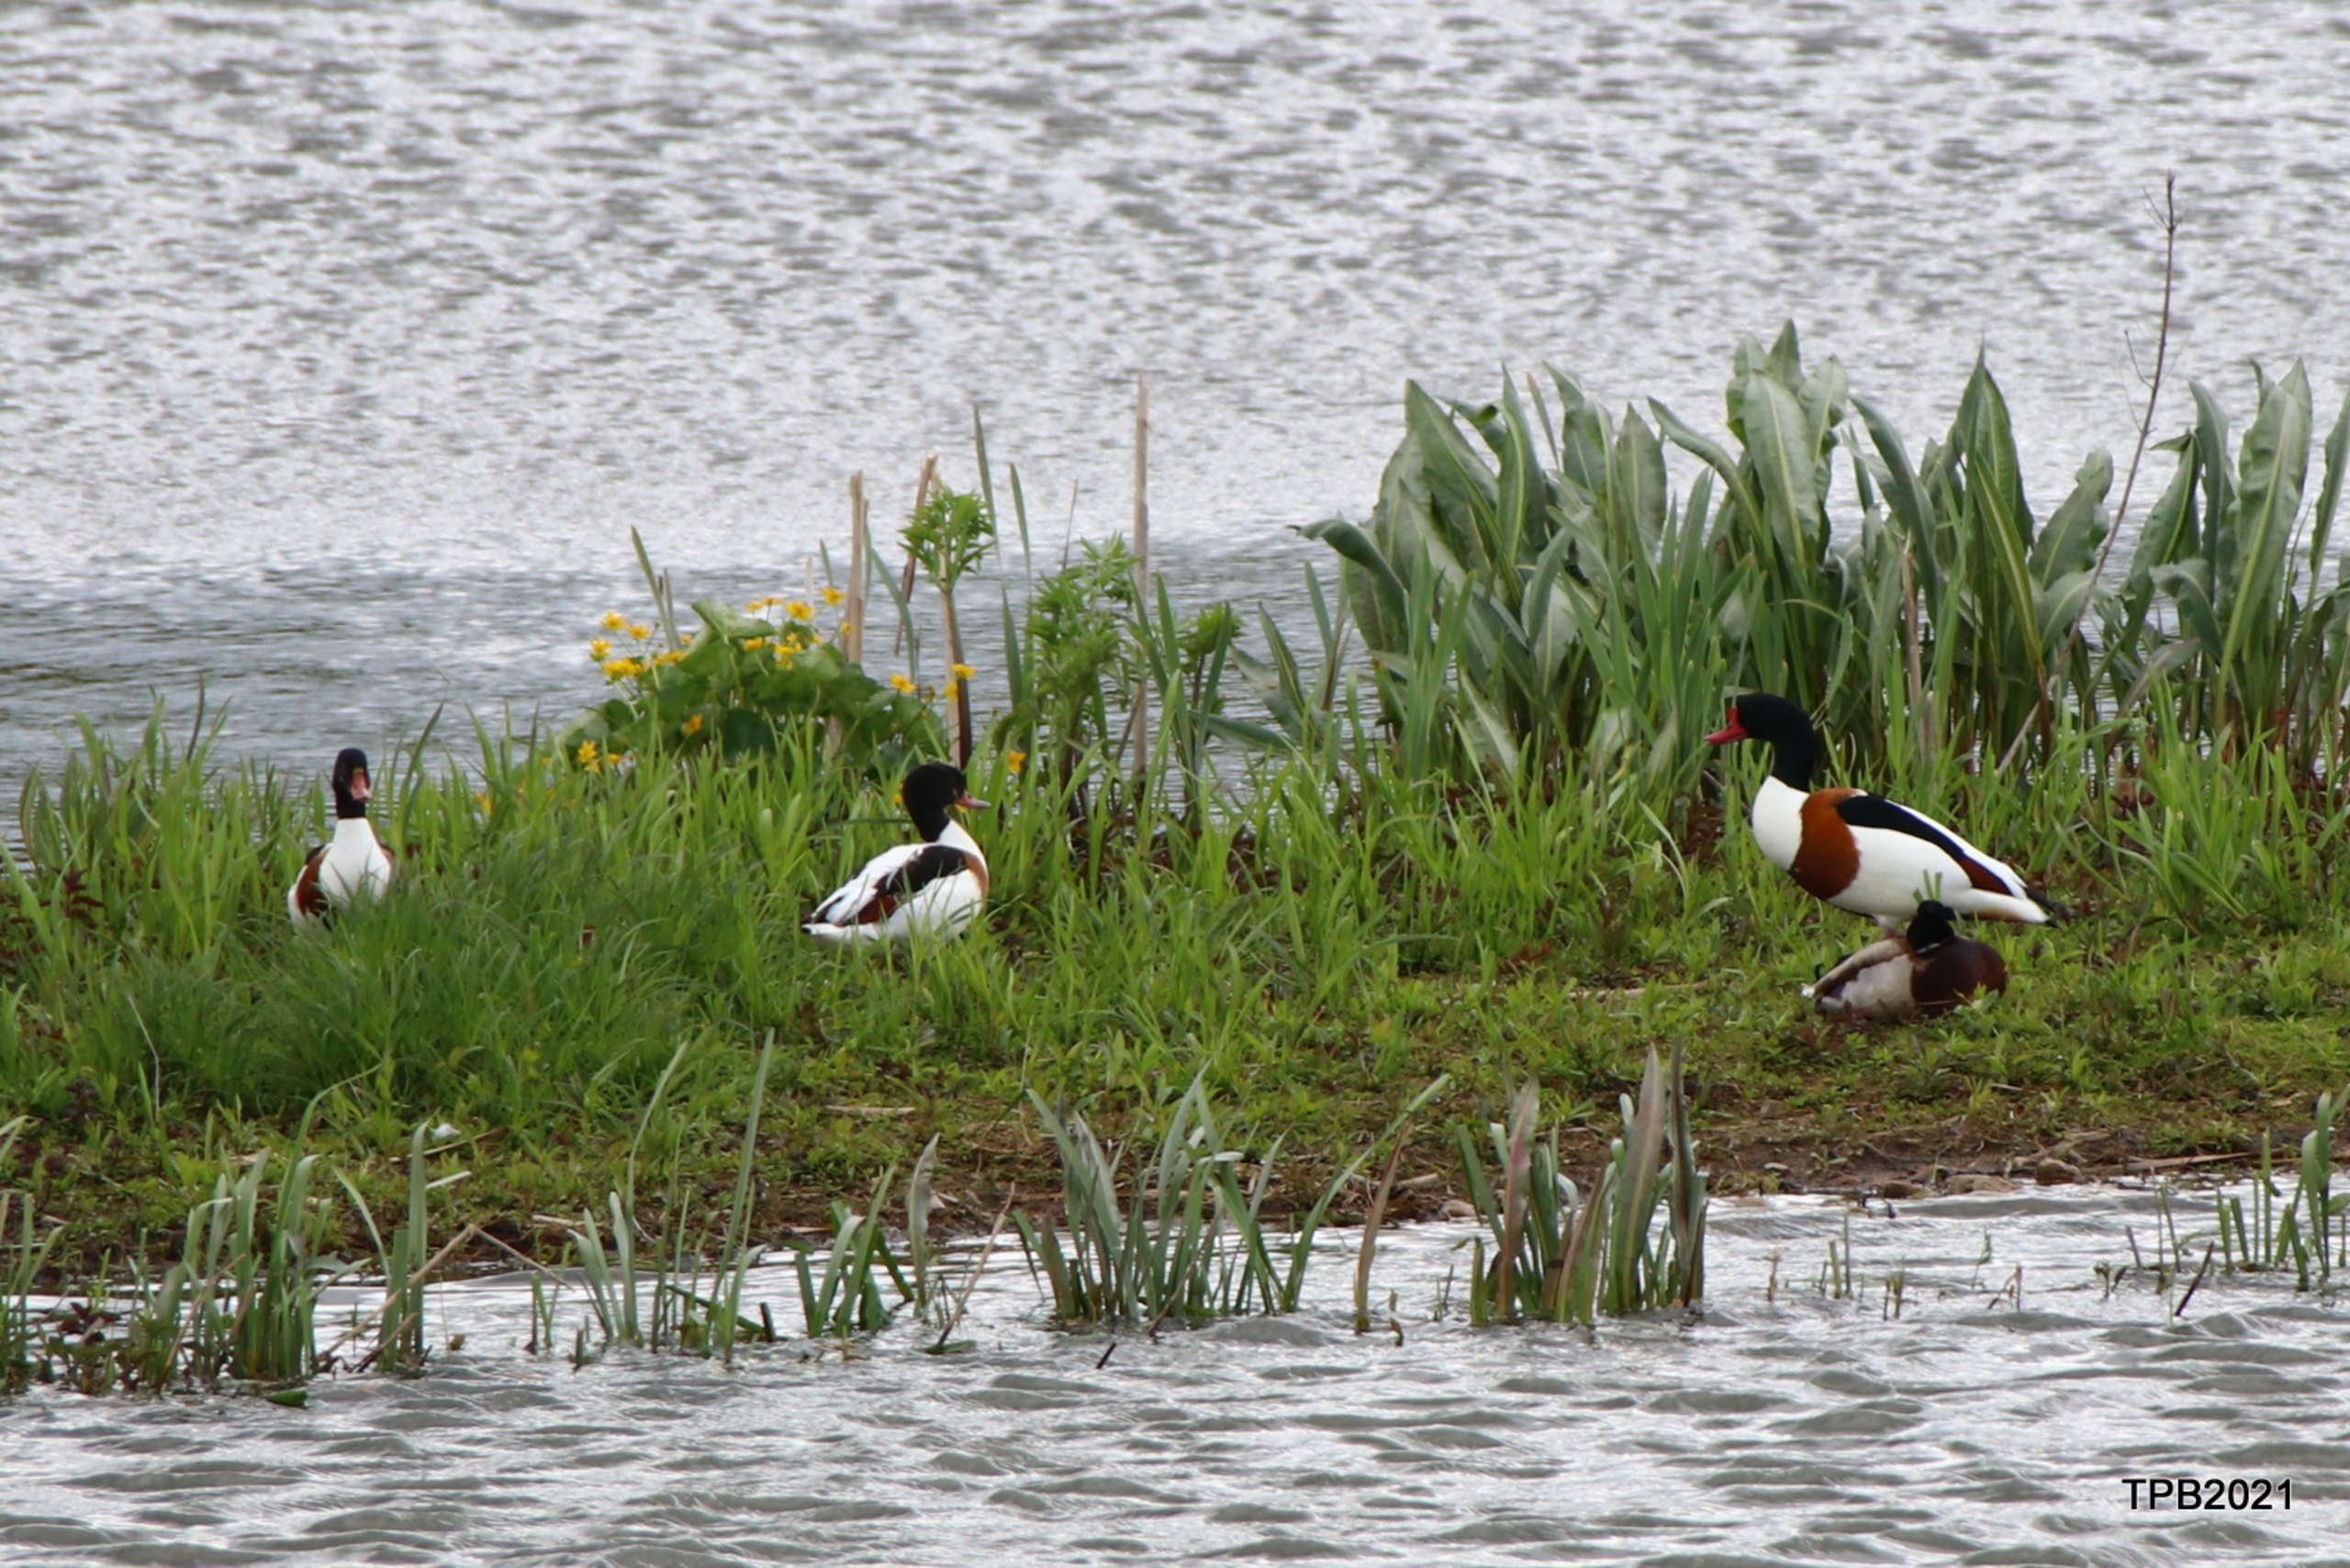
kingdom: Animalia
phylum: Chordata
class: Aves
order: Anseriformes
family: Anatidae
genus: Tadorna
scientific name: Tadorna tadorna
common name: Gravand
